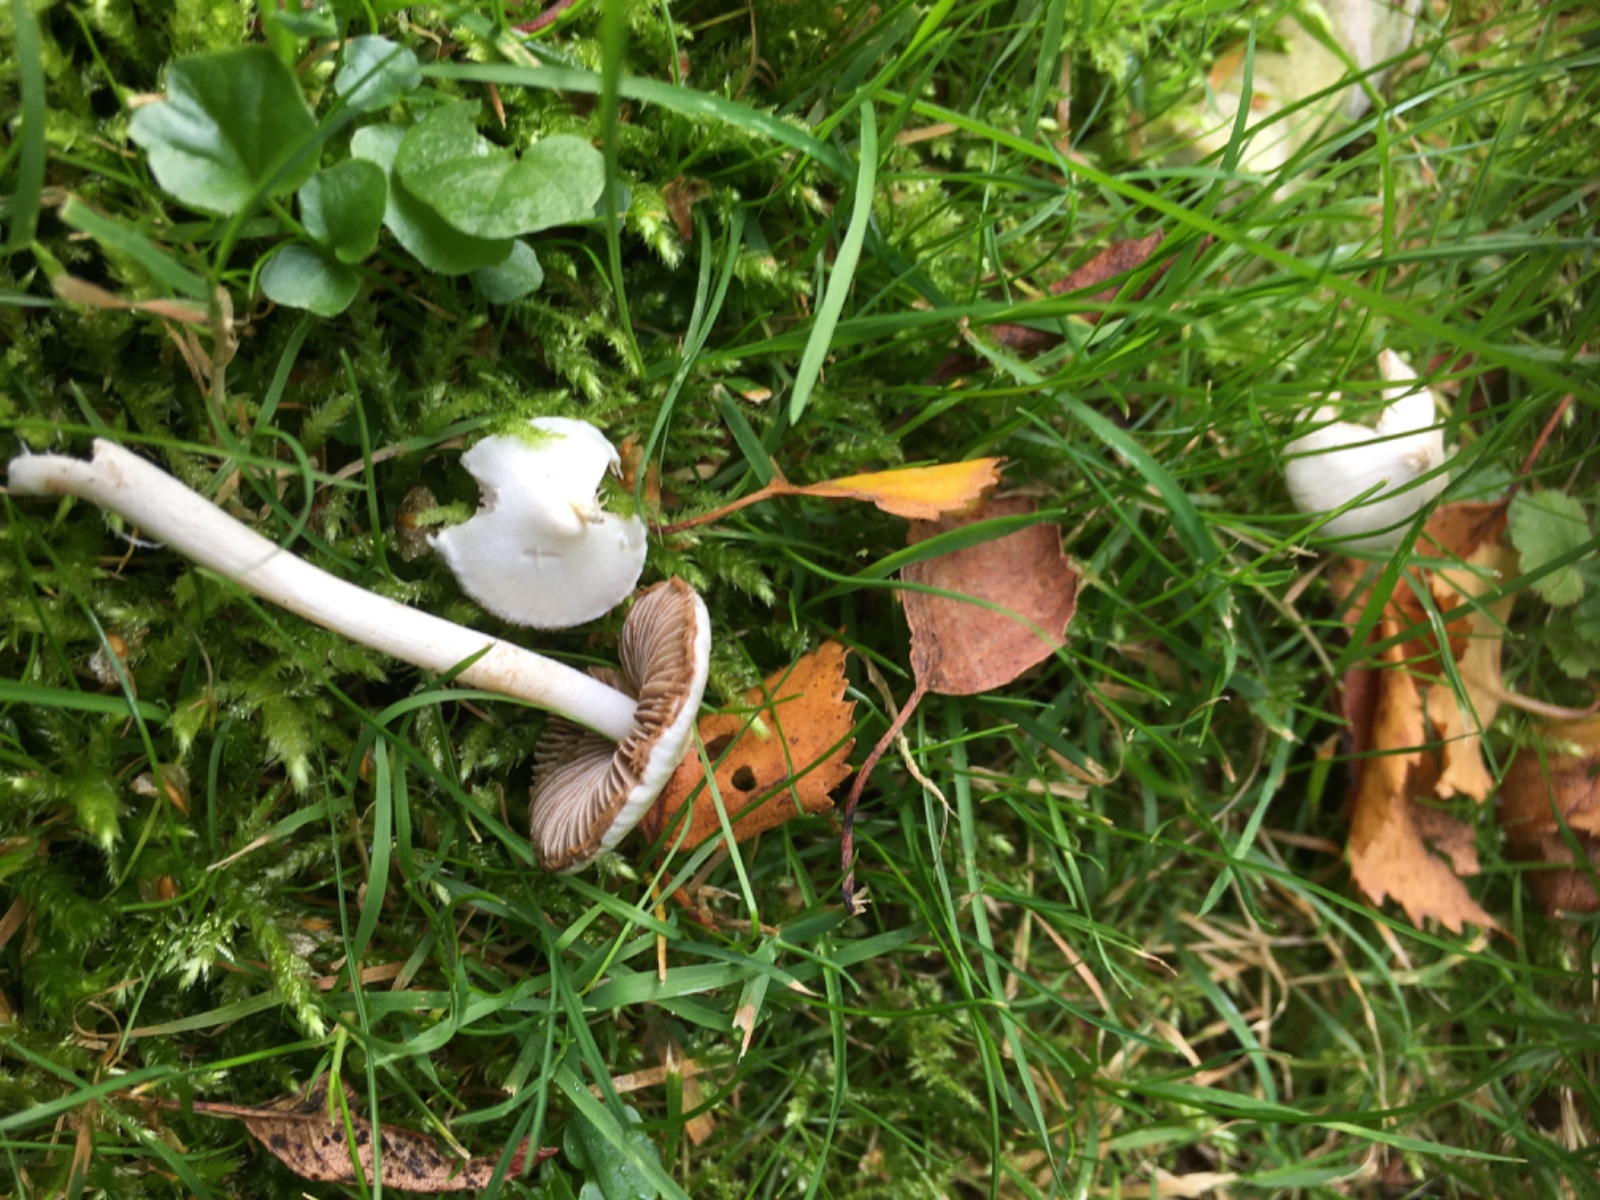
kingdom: Fungi
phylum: Basidiomycota
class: Agaricomycetes
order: Agaricales
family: Inocybaceae
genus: Inocybe
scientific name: Inocybe
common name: almindelig trævlhat
